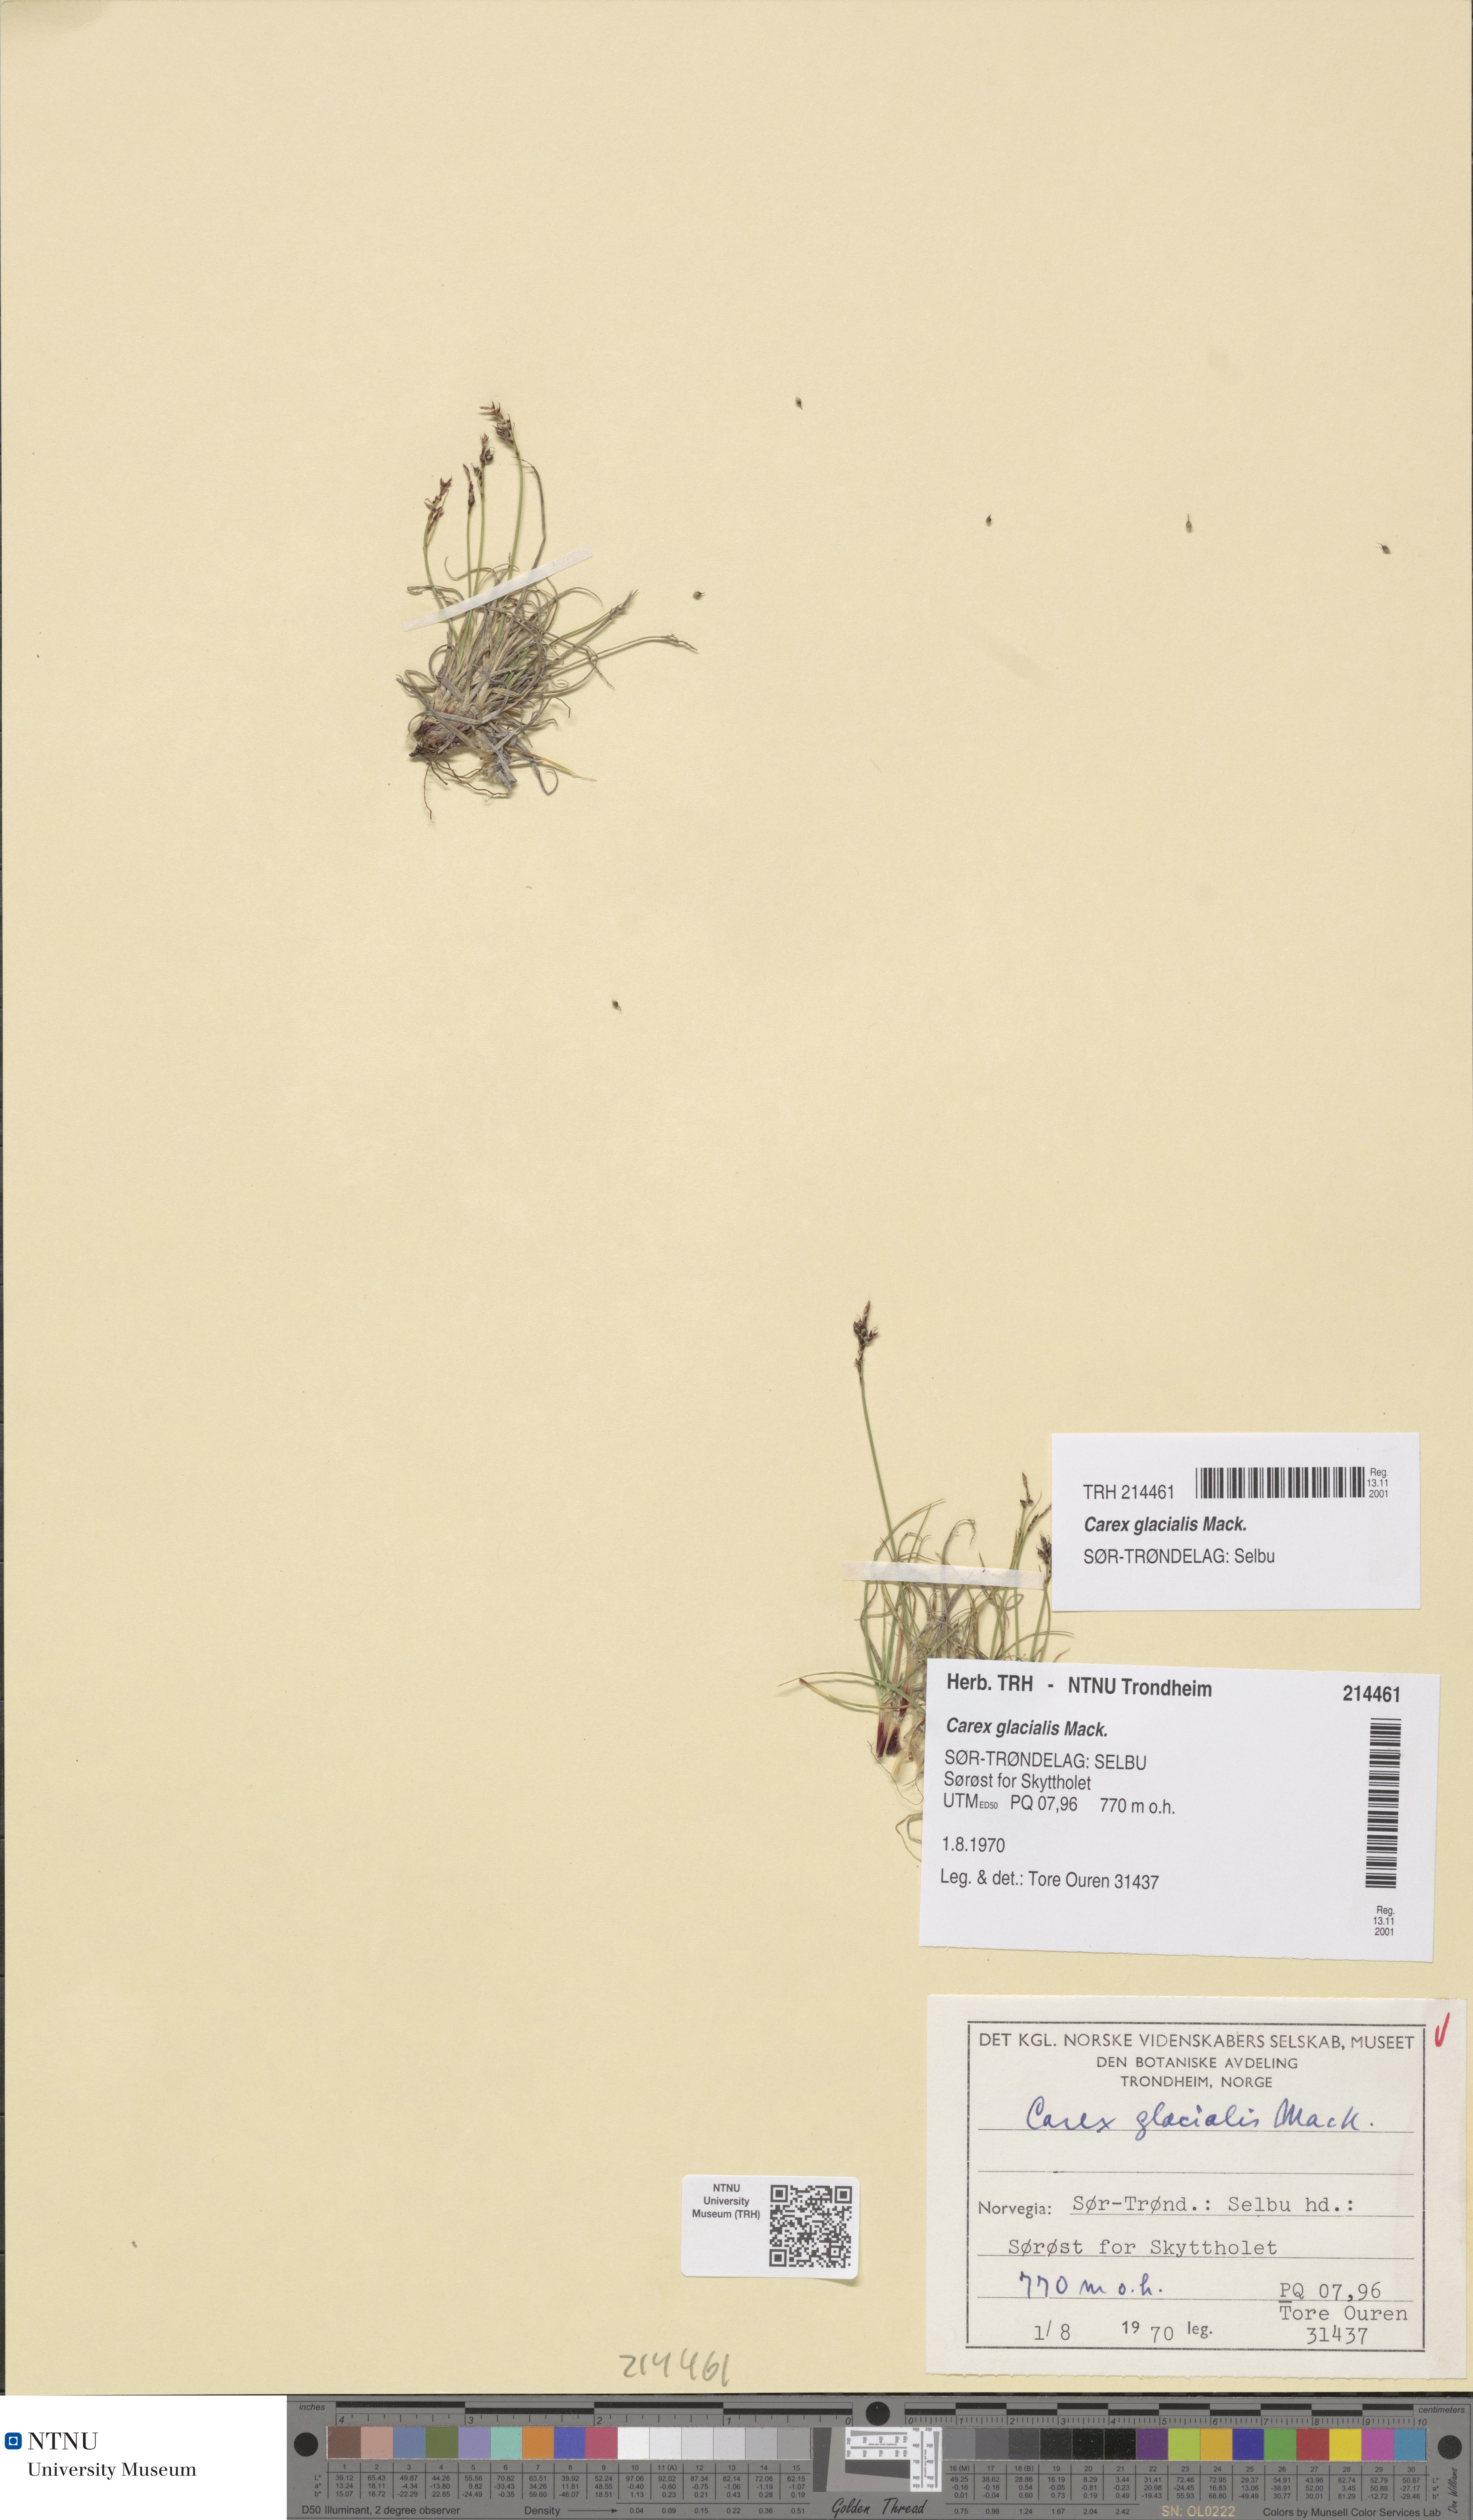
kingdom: Plantae
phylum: Tracheophyta
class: Liliopsida
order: Poales
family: Cyperaceae
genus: Carex
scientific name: Carex glacialis
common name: Newfoundland sedge
